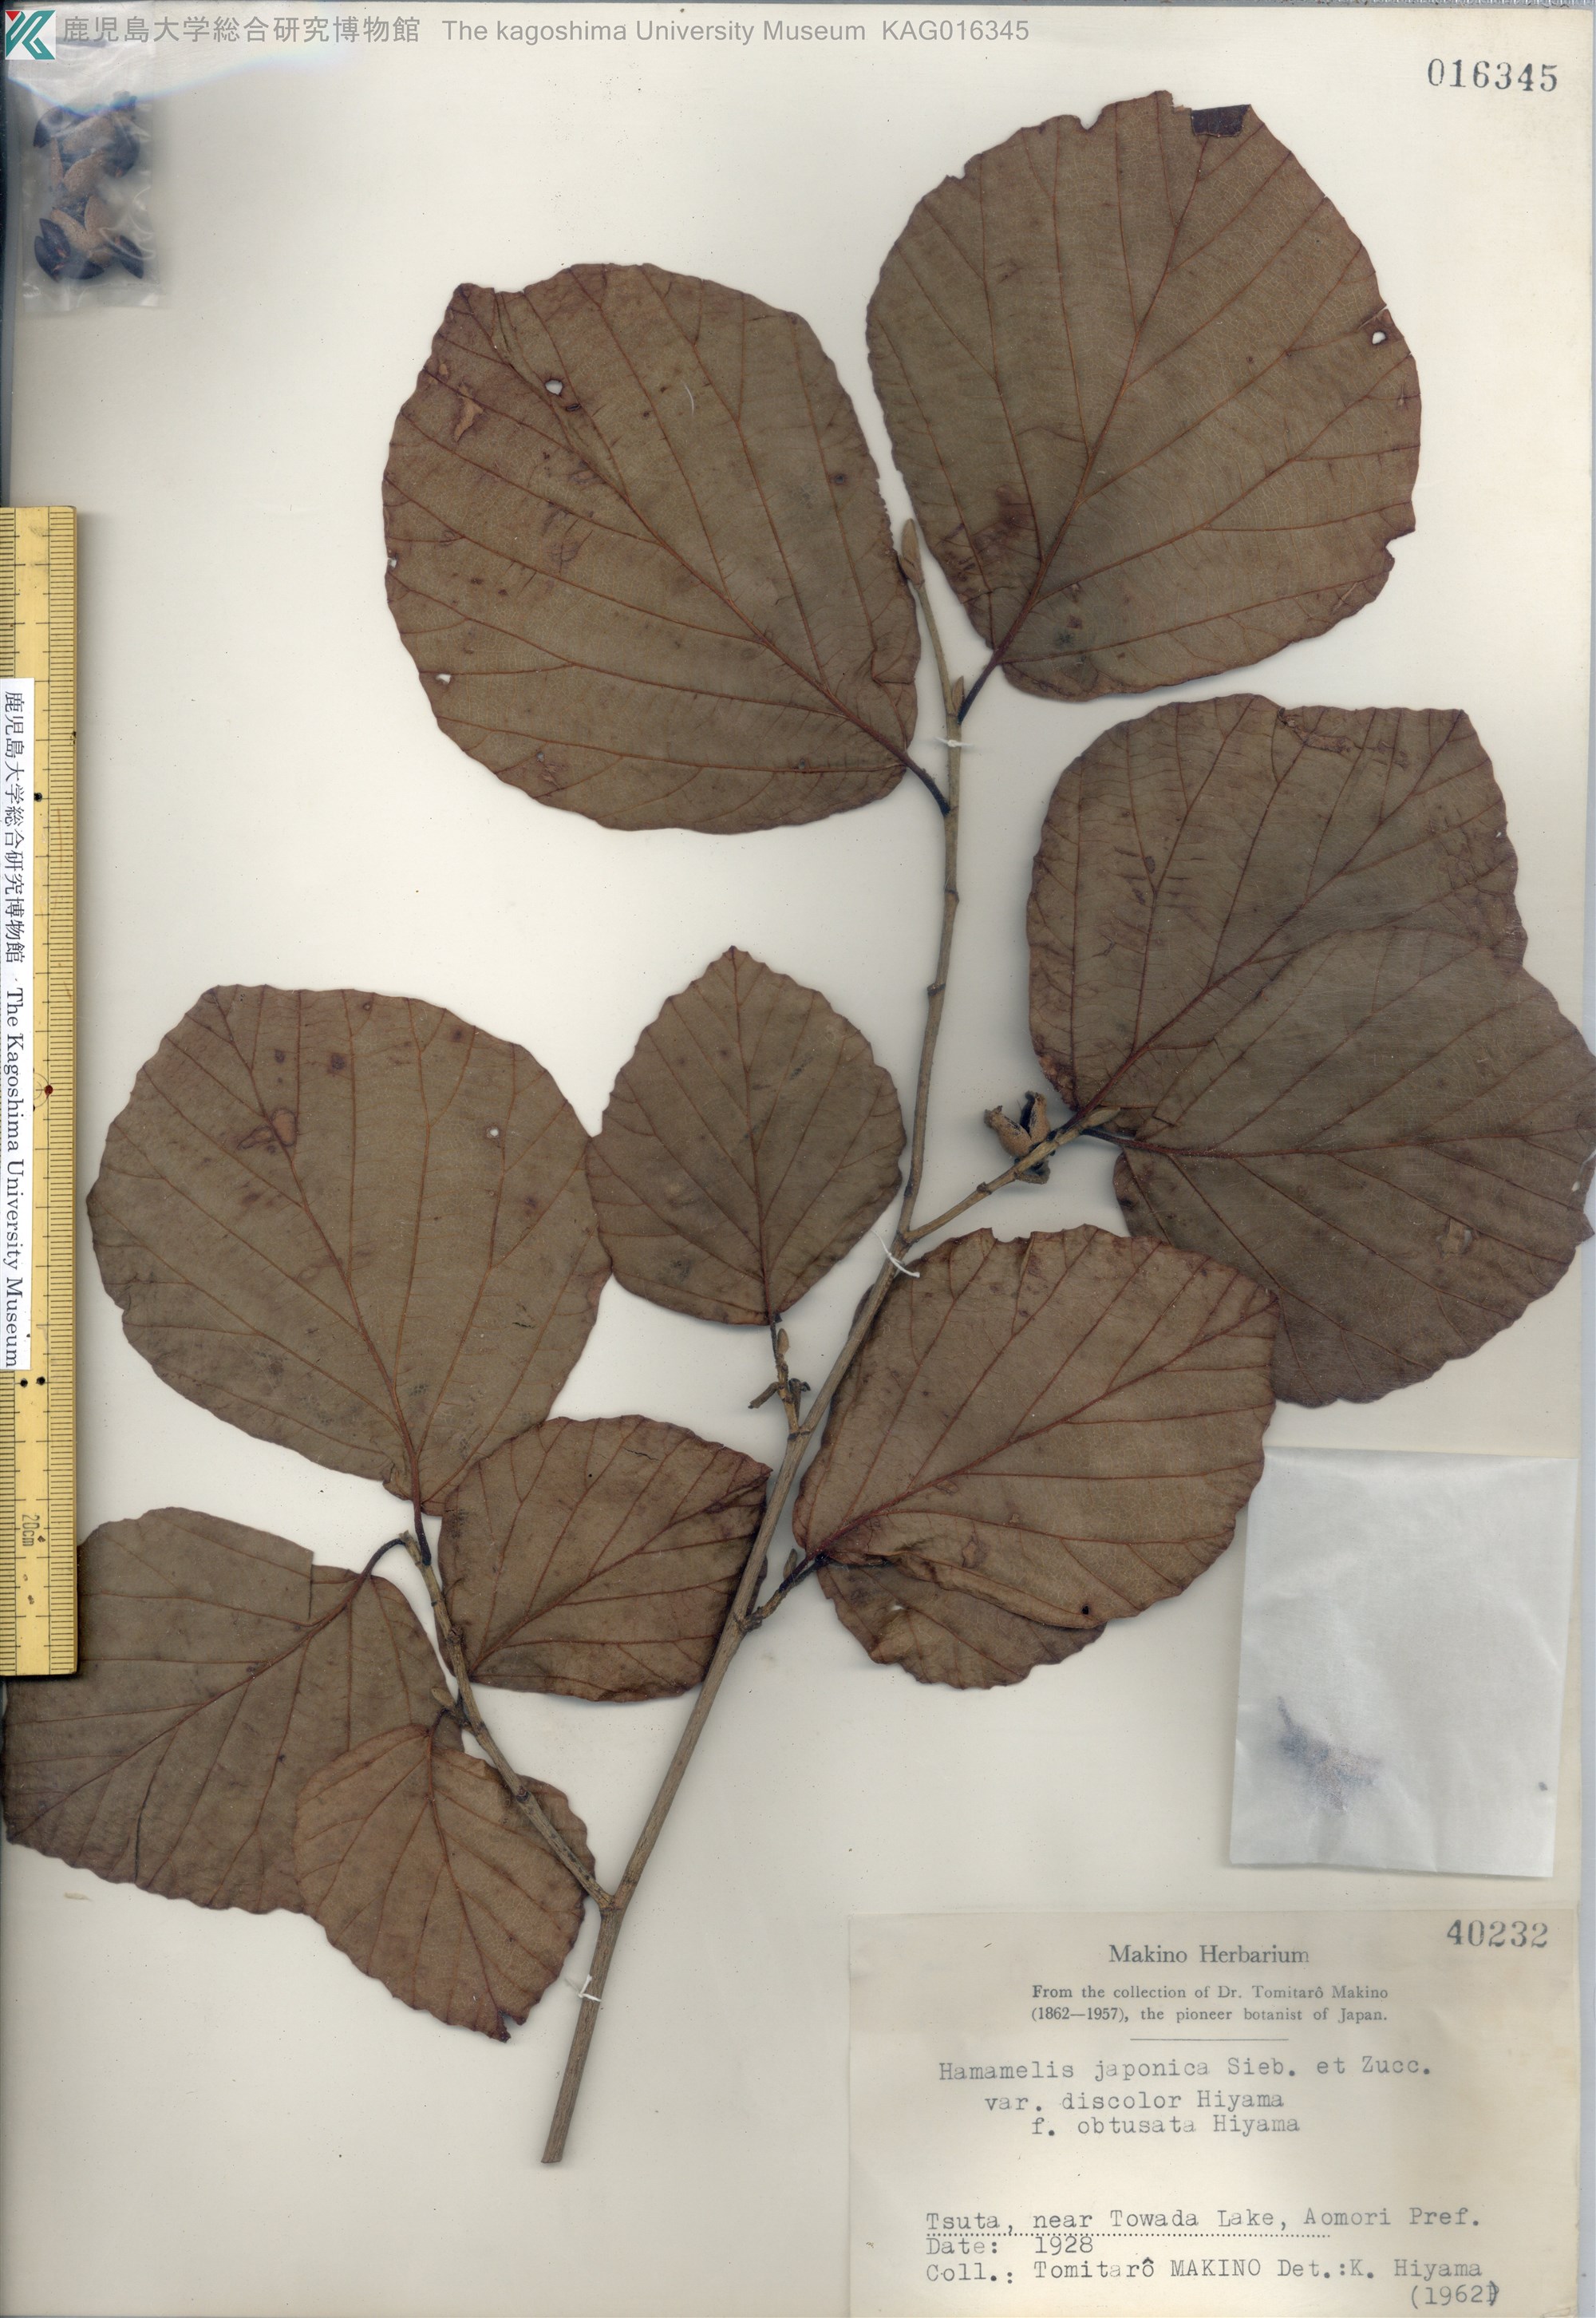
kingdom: Plantae
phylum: Tracheophyta
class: Magnoliopsida
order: Saxifragales
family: Hamamelidaceae
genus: Hamamelis
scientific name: Hamamelis japonica
